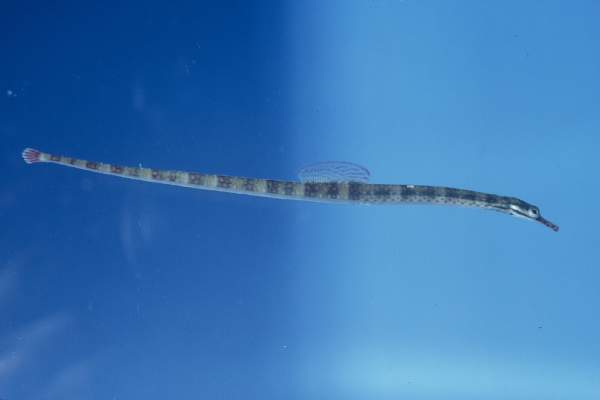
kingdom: Animalia
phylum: Chordata
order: Syngnathiformes
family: Syngnathidae
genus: Corythoichthys
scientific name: Corythoichthys flavofasciatus
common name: Banded pipefish
